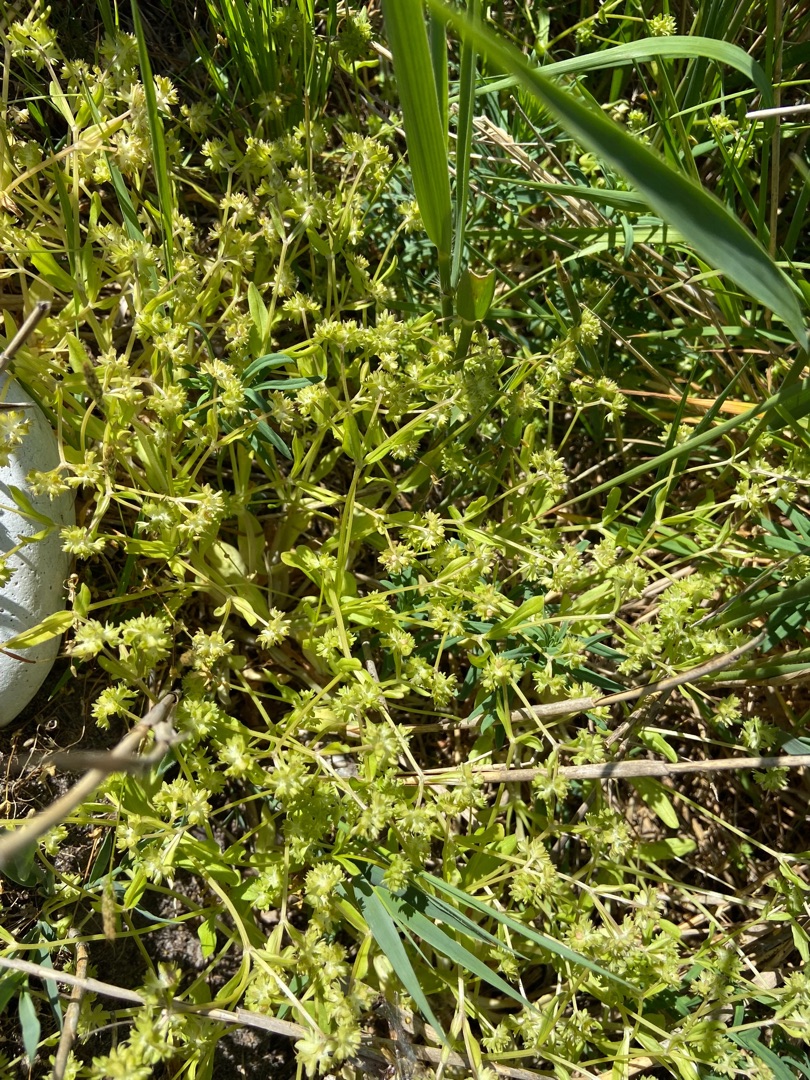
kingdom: Plantae
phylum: Tracheophyta
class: Magnoliopsida
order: Dipsacales
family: Caprifoliaceae
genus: Valerianella
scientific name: Valerianella locusta
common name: Tandfri vårsalat
